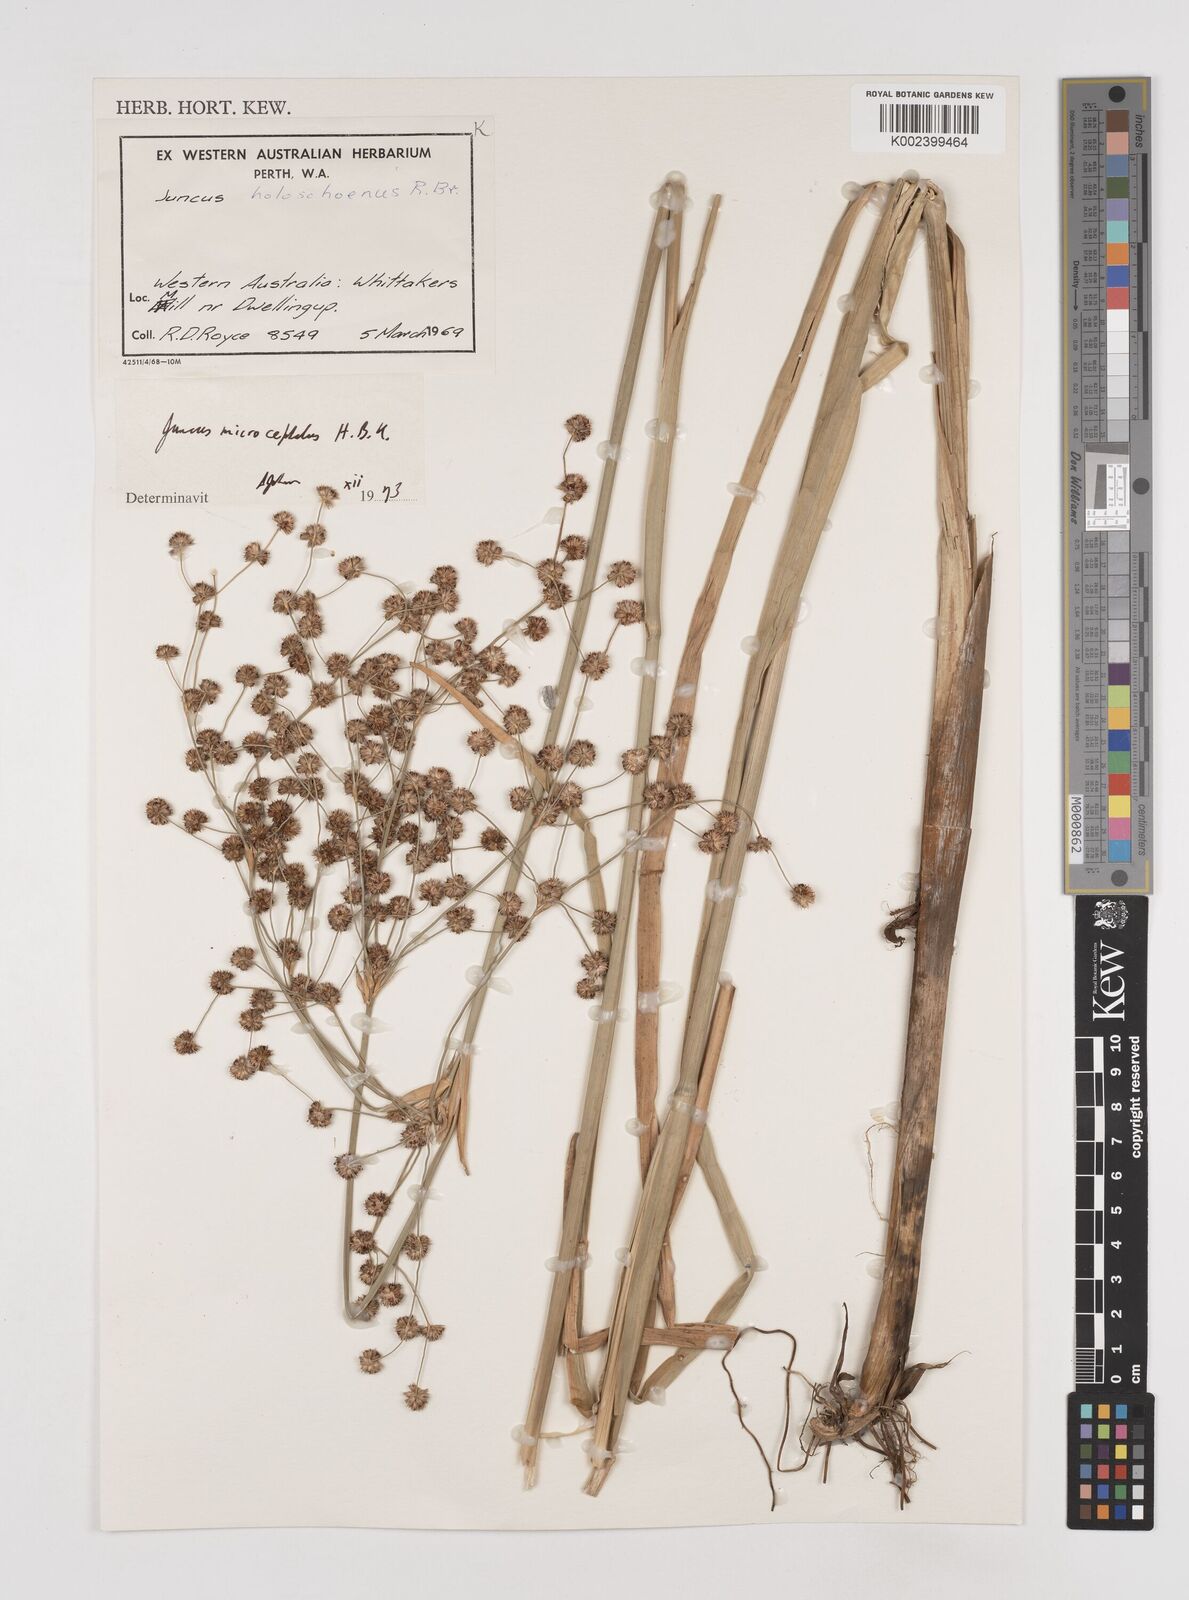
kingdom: Plantae
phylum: Tracheophyta
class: Liliopsida
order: Poales
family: Juncaceae
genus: Juncus
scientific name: Juncus microcephalus
